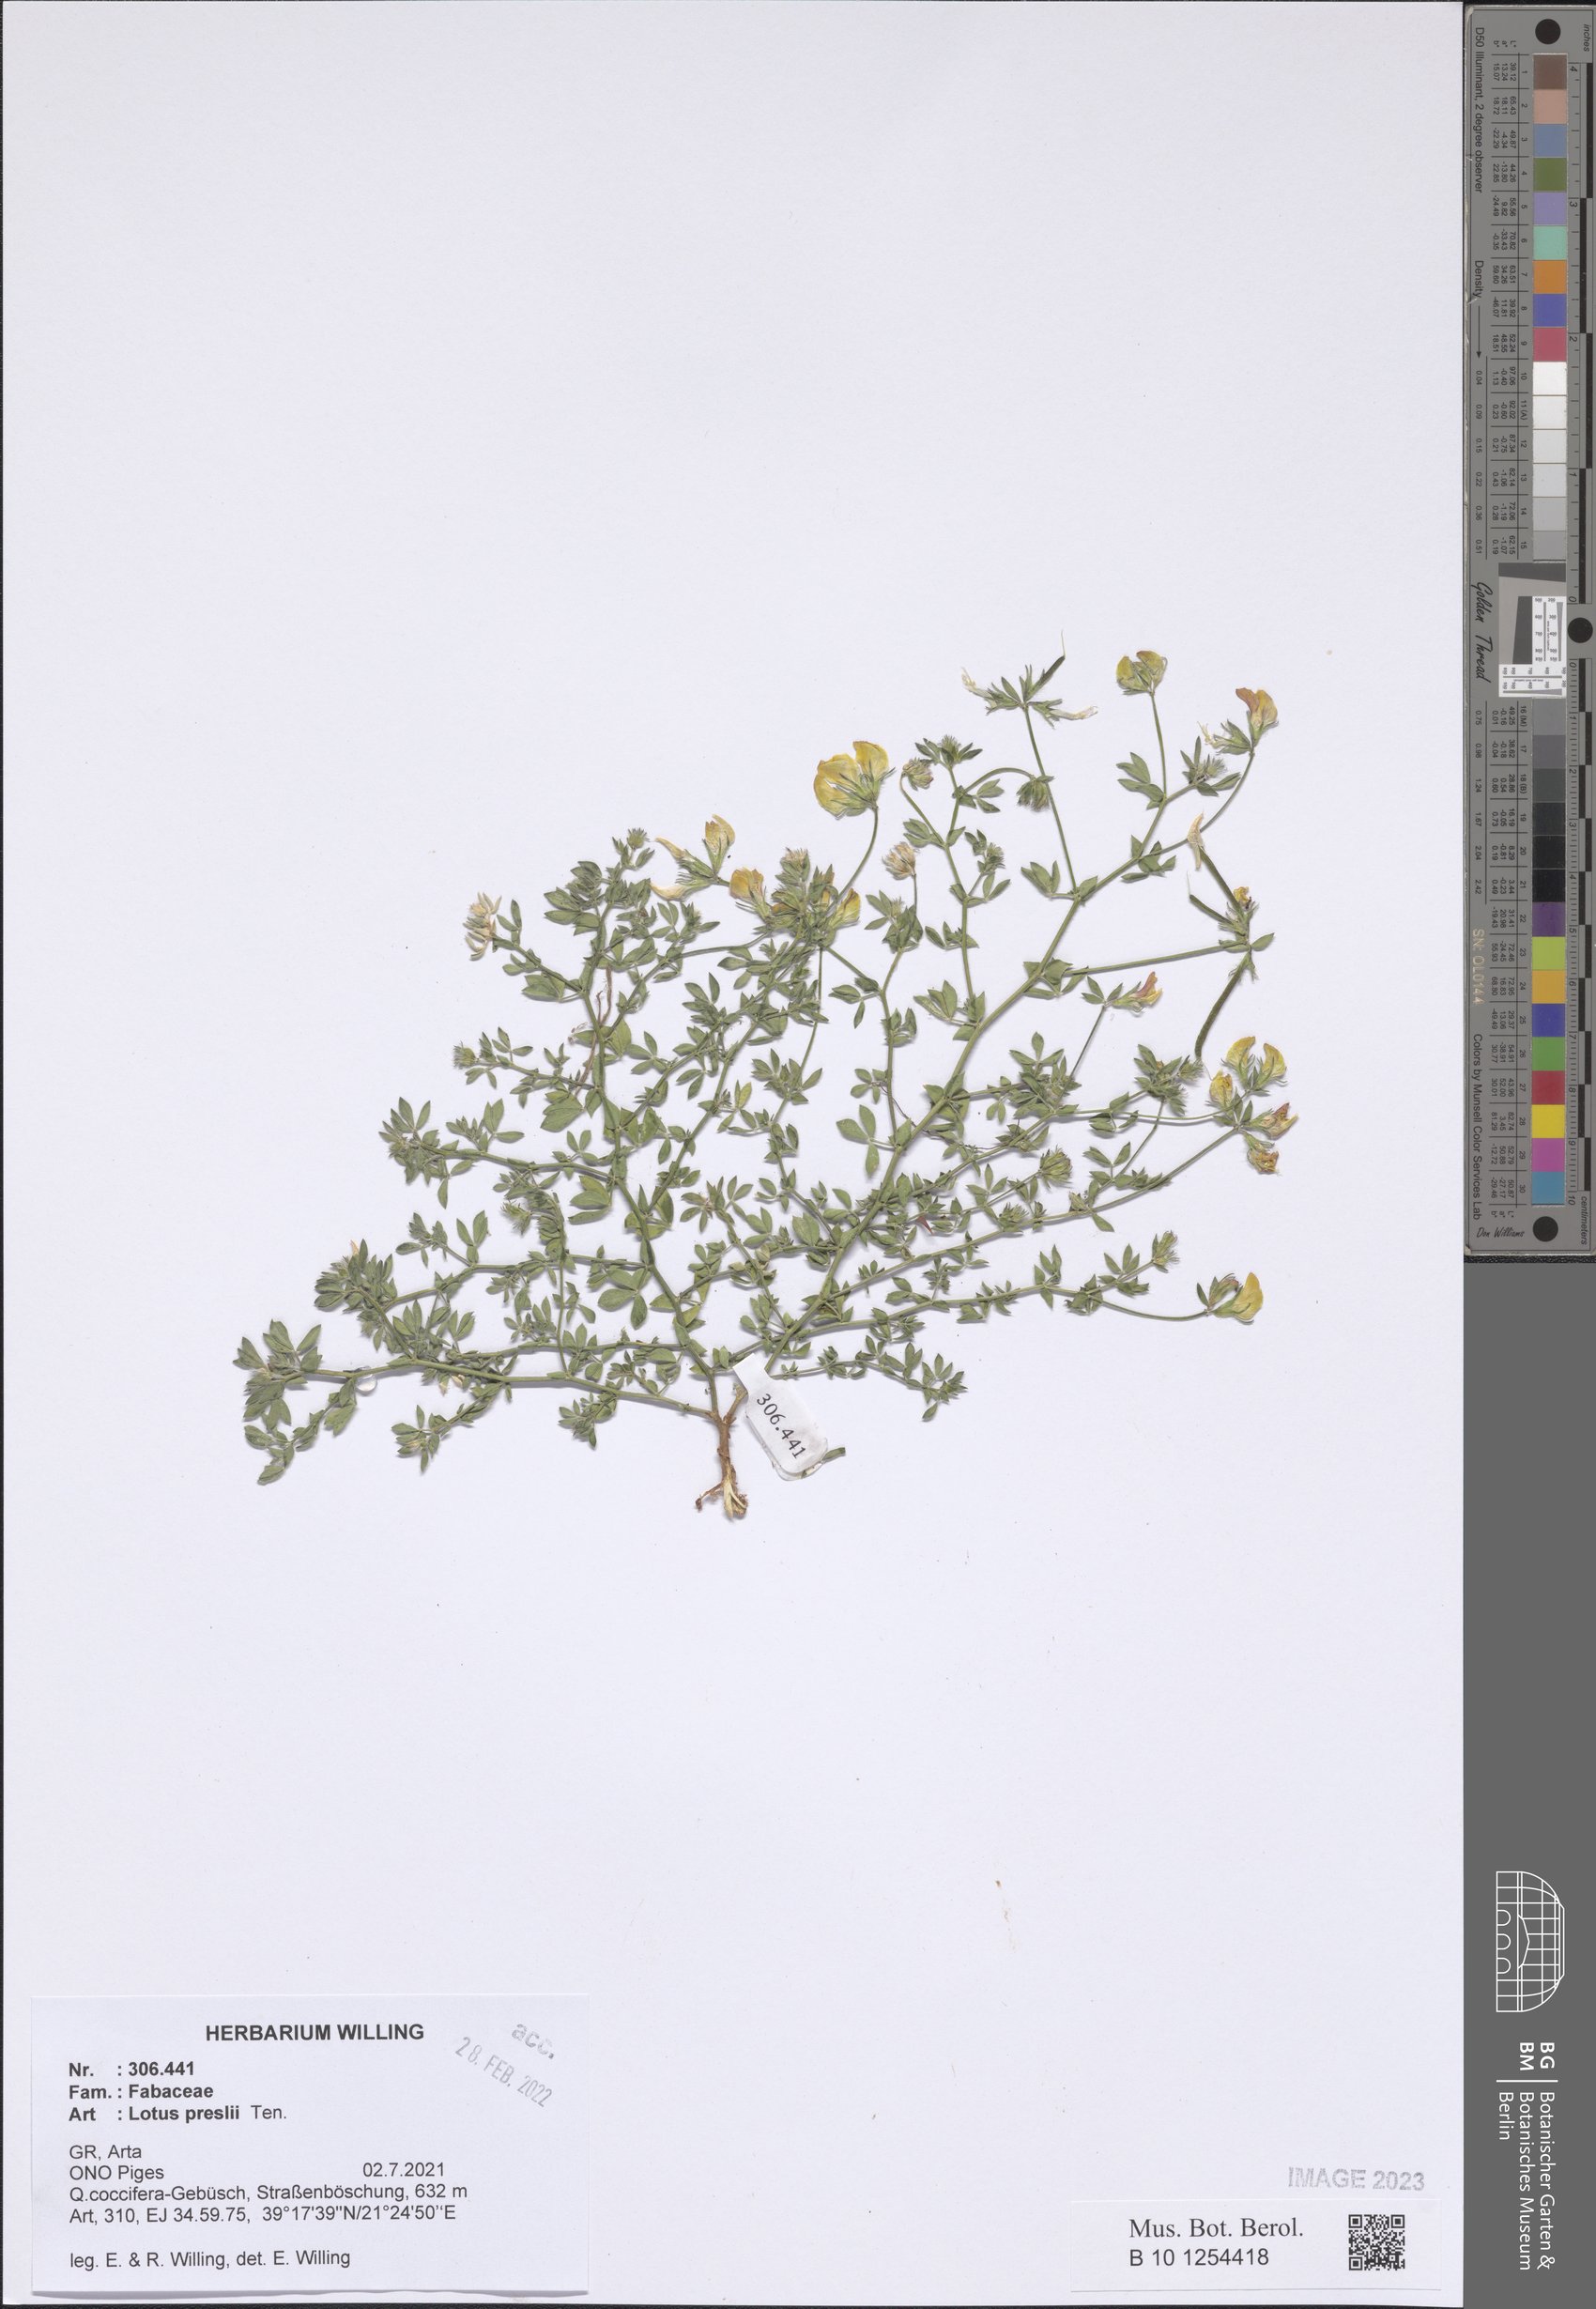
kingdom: Plantae
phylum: Tracheophyta
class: Magnoliopsida
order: Fabales
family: Fabaceae
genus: Lotus
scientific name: Lotus corniculatus
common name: Common bird's-foot-trefoil
